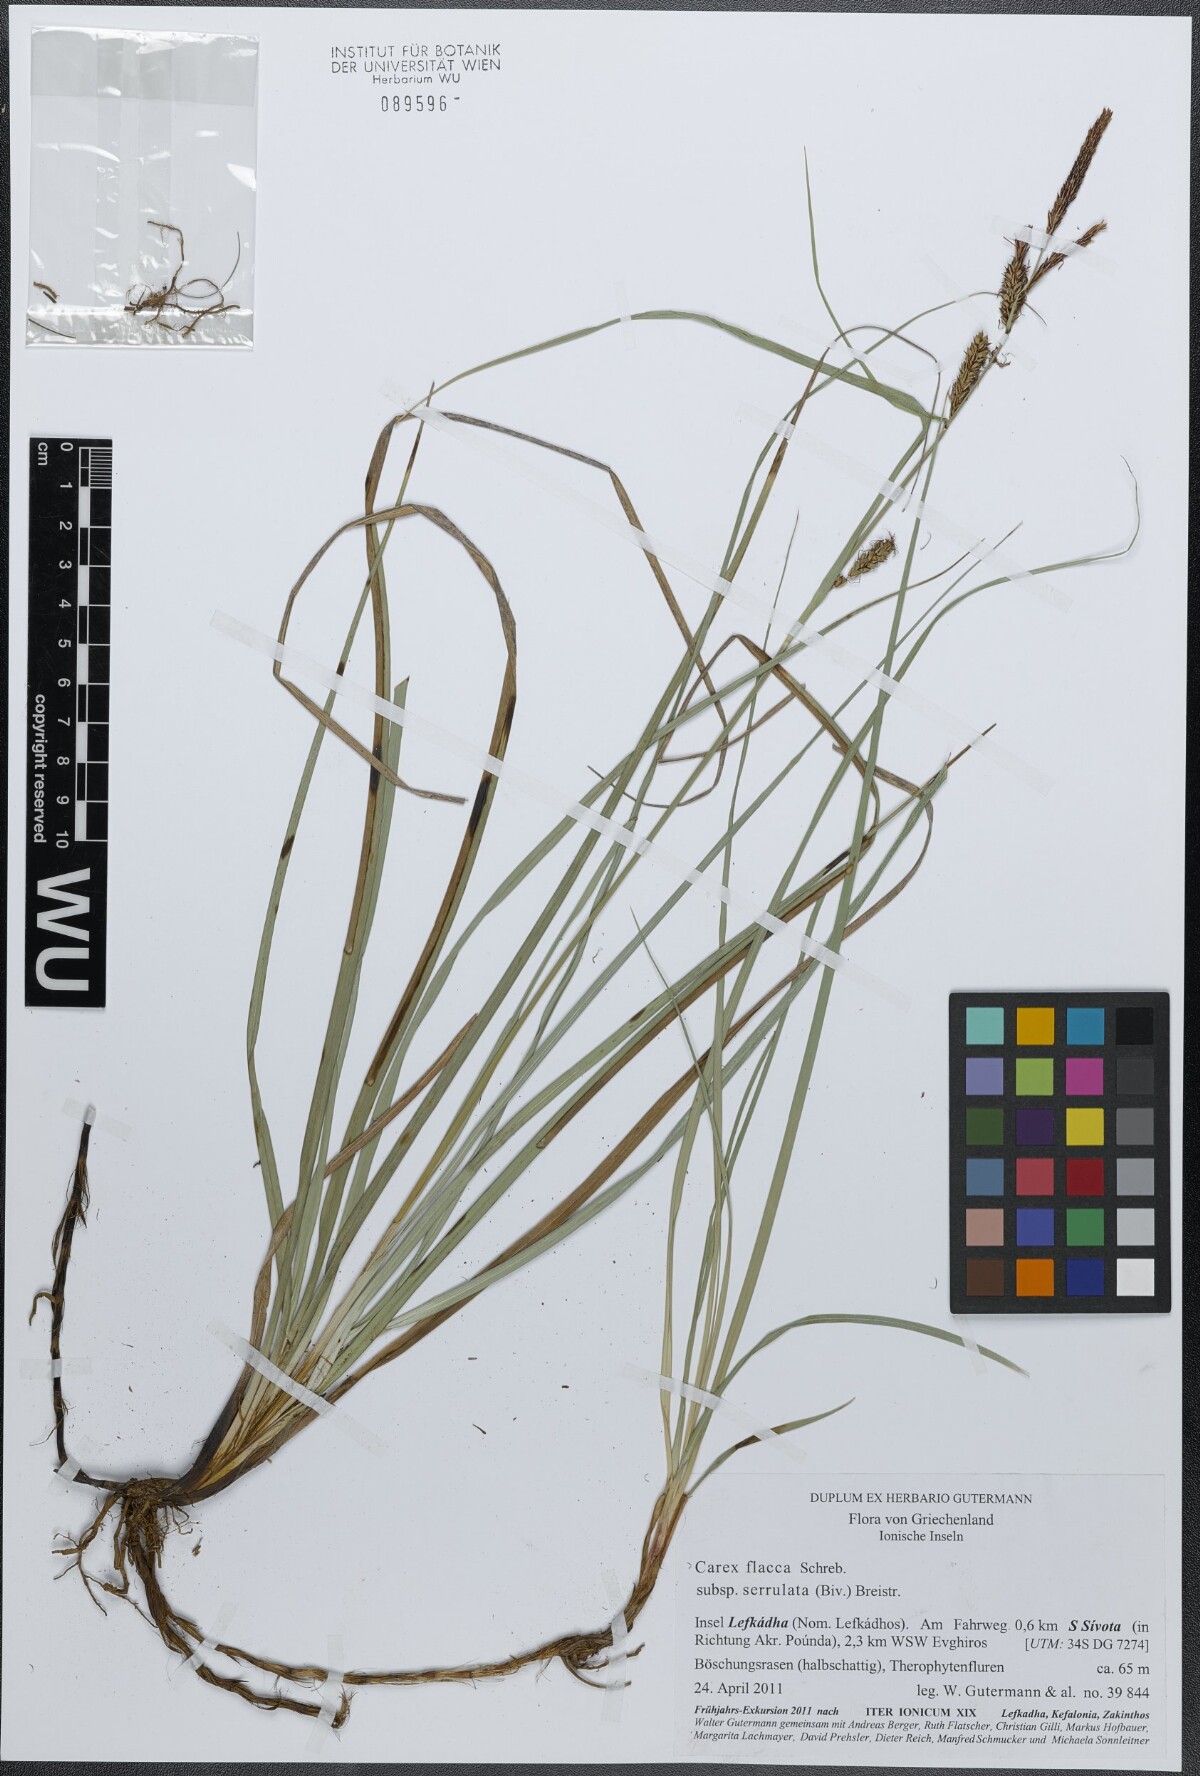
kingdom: Plantae
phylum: Tracheophyta
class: Liliopsida
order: Poales
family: Cyperaceae
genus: Carex
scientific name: Carex flacca
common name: Glaucous sedge
